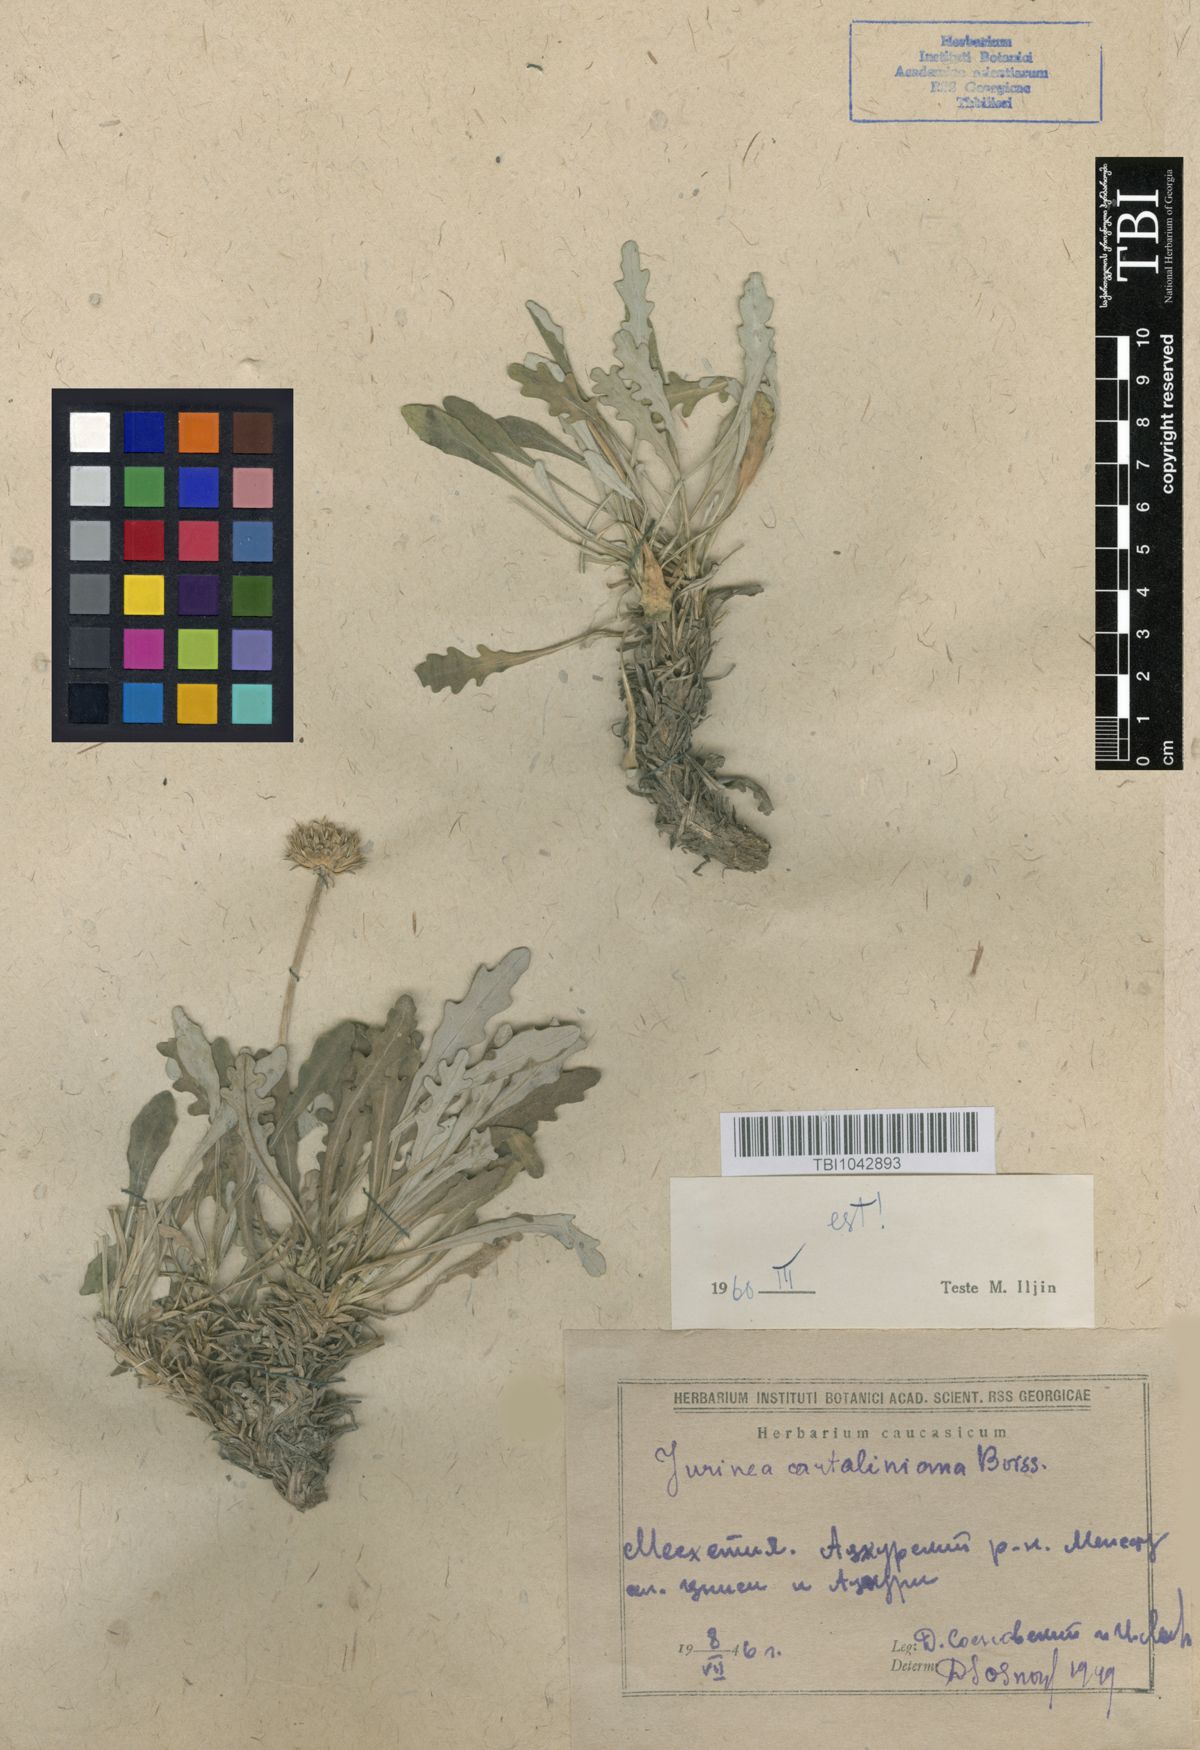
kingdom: Plantae
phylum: Tracheophyta
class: Magnoliopsida
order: Asterales
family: Asteraceae
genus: Jurinea
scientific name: Jurinea cartaliniana
